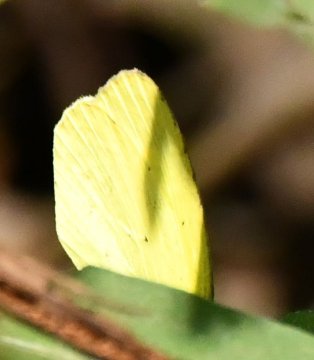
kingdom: Animalia
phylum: Arthropoda
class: Insecta
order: Lepidoptera
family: Pieridae
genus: Pyrisitia
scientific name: Pyrisitia nise
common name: Mimosa Yellow
